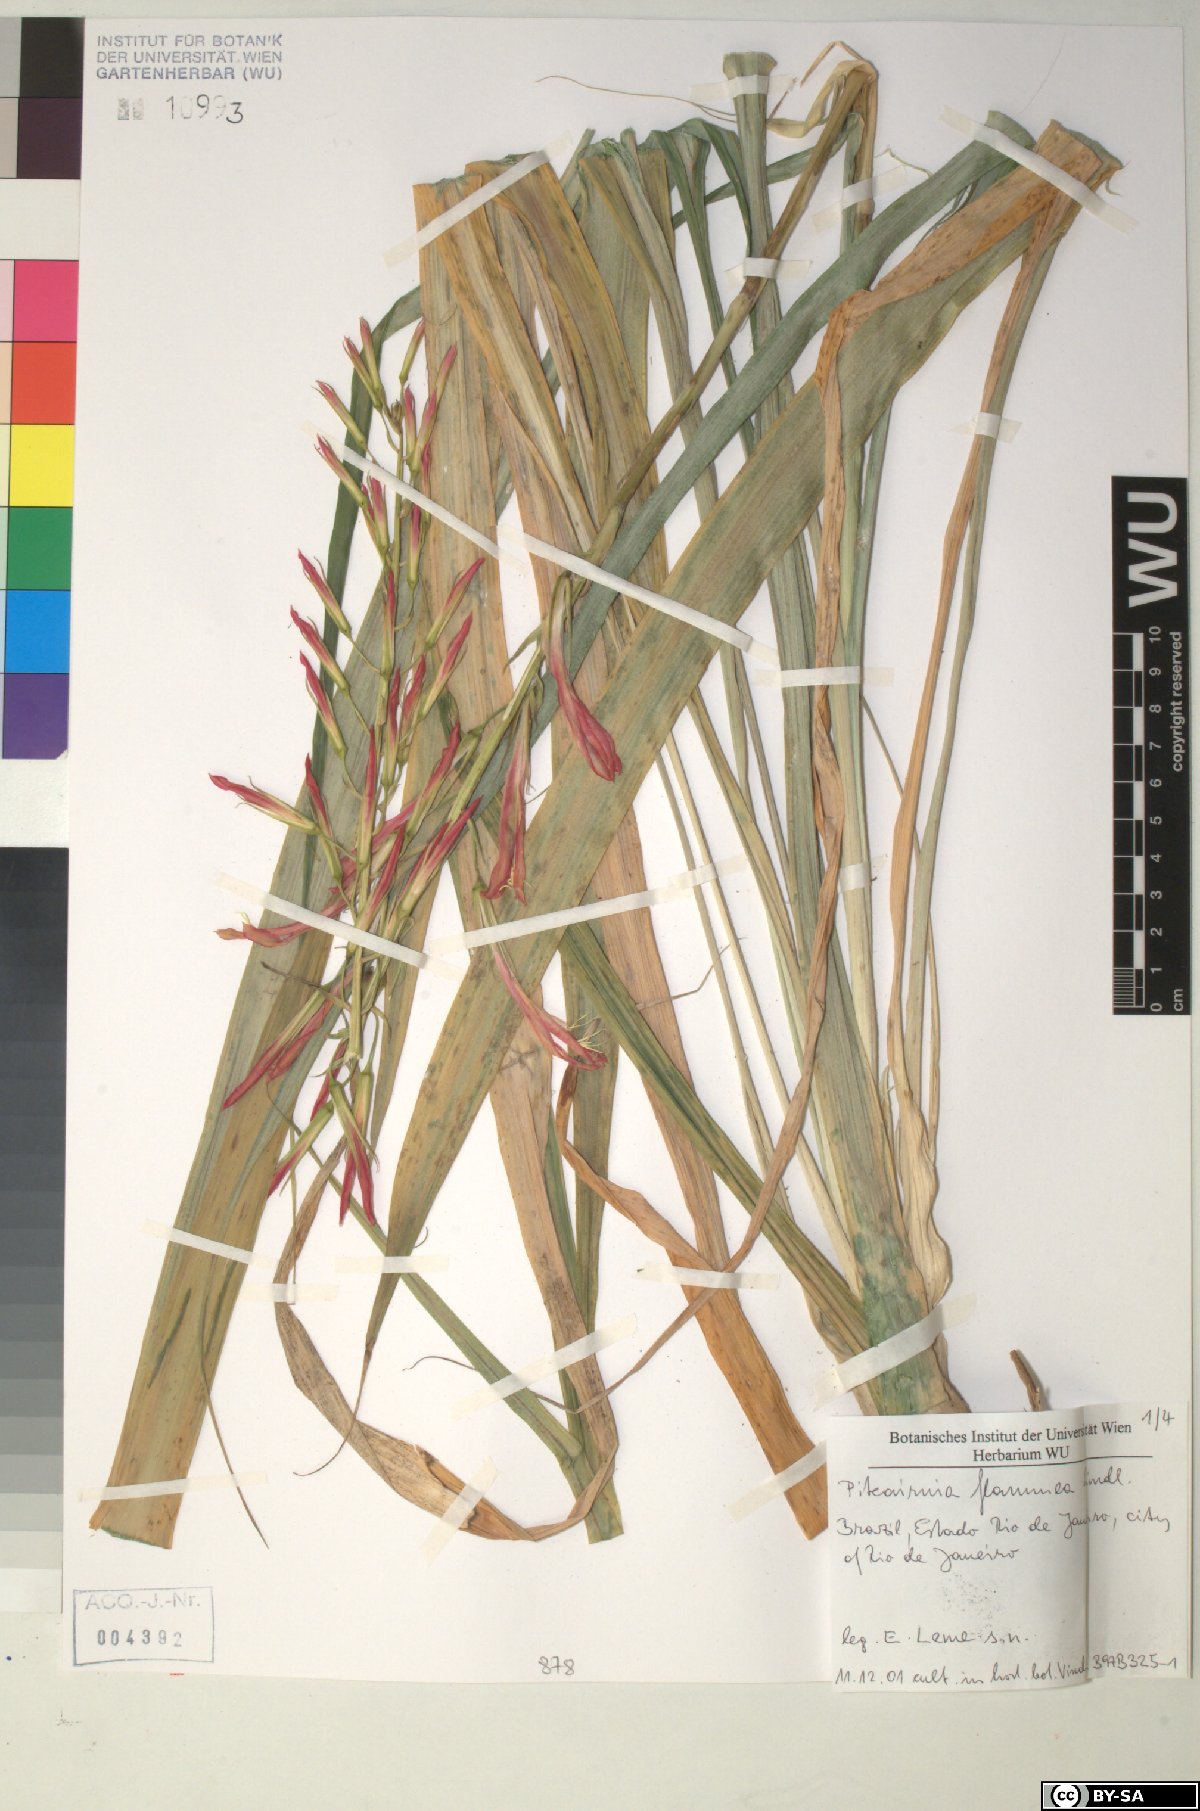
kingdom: Plantae
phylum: Tracheophyta
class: Liliopsida
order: Poales
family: Bromeliaceae
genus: Pitcairnia
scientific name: Pitcairnia
